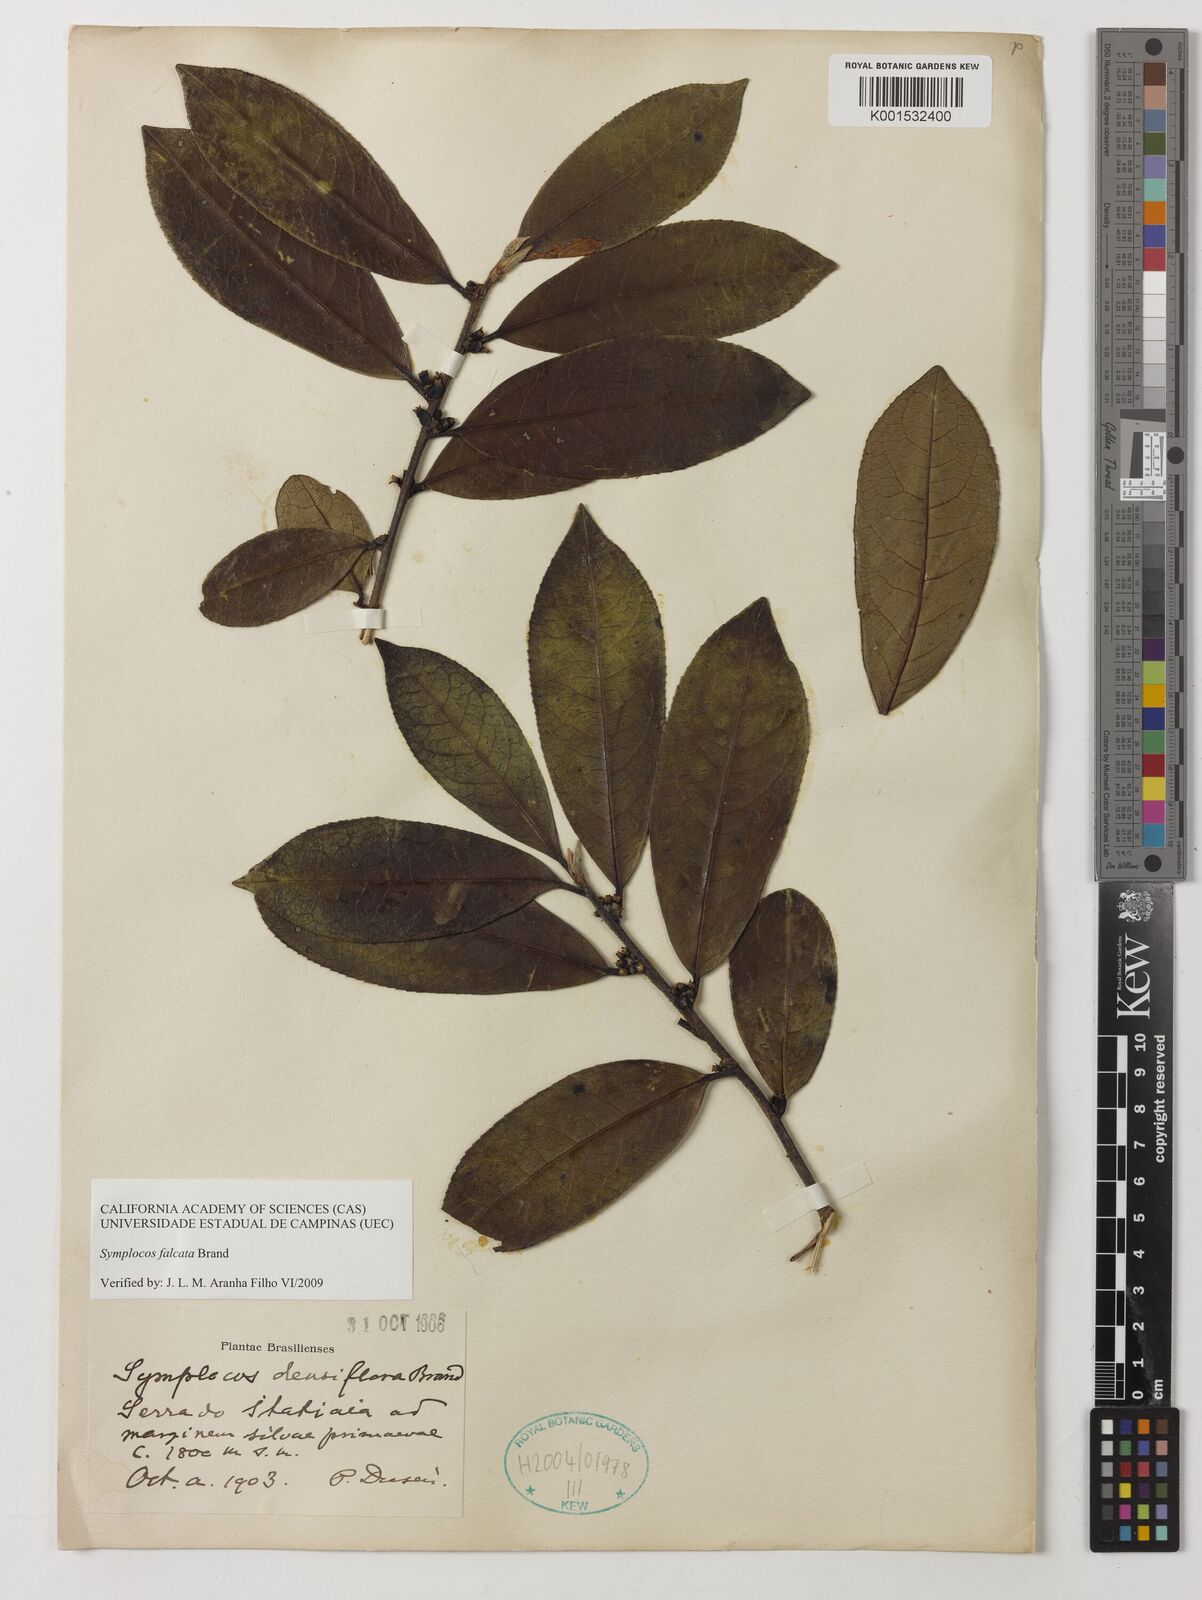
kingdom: Plantae
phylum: Tracheophyta
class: Magnoliopsida
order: Ericales
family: Symplocaceae
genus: Symplocos
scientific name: Symplocos falcata
